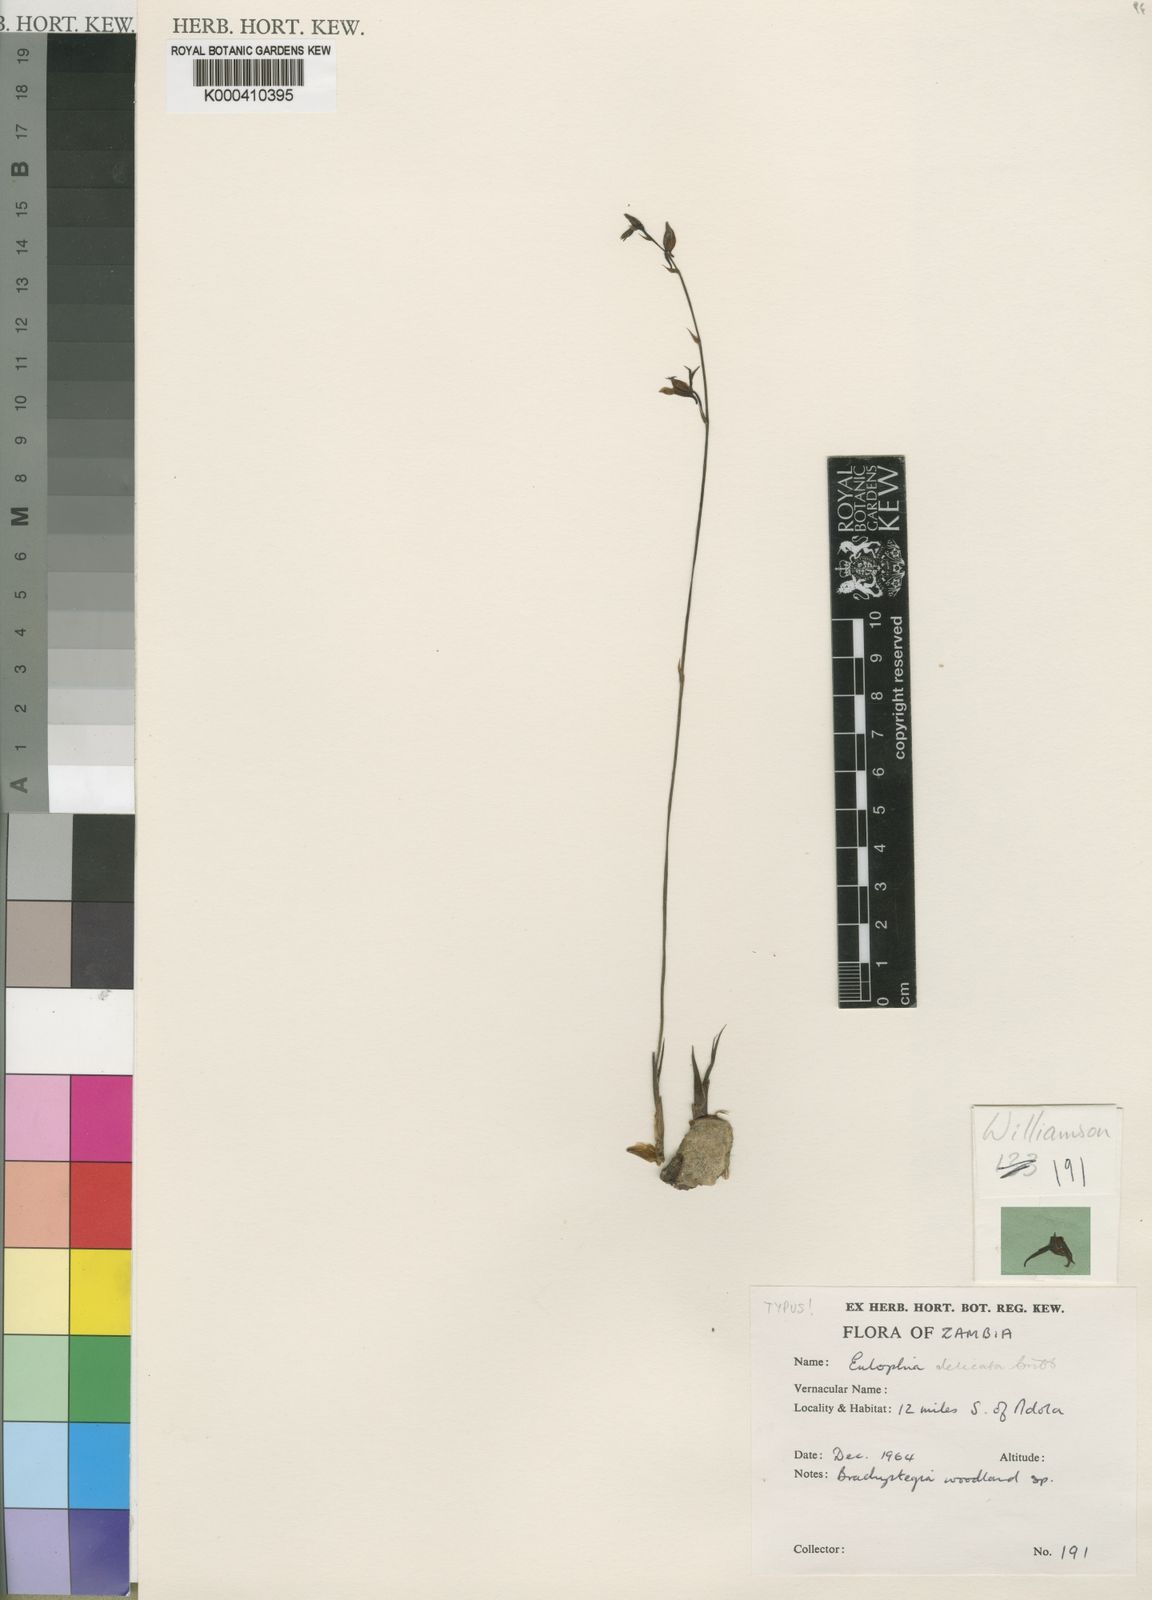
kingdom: Plantae
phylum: Tracheophyta
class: Liliopsida
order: Asparagales
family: Orchidaceae
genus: Eulophia
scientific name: Eulophia acutilabra
